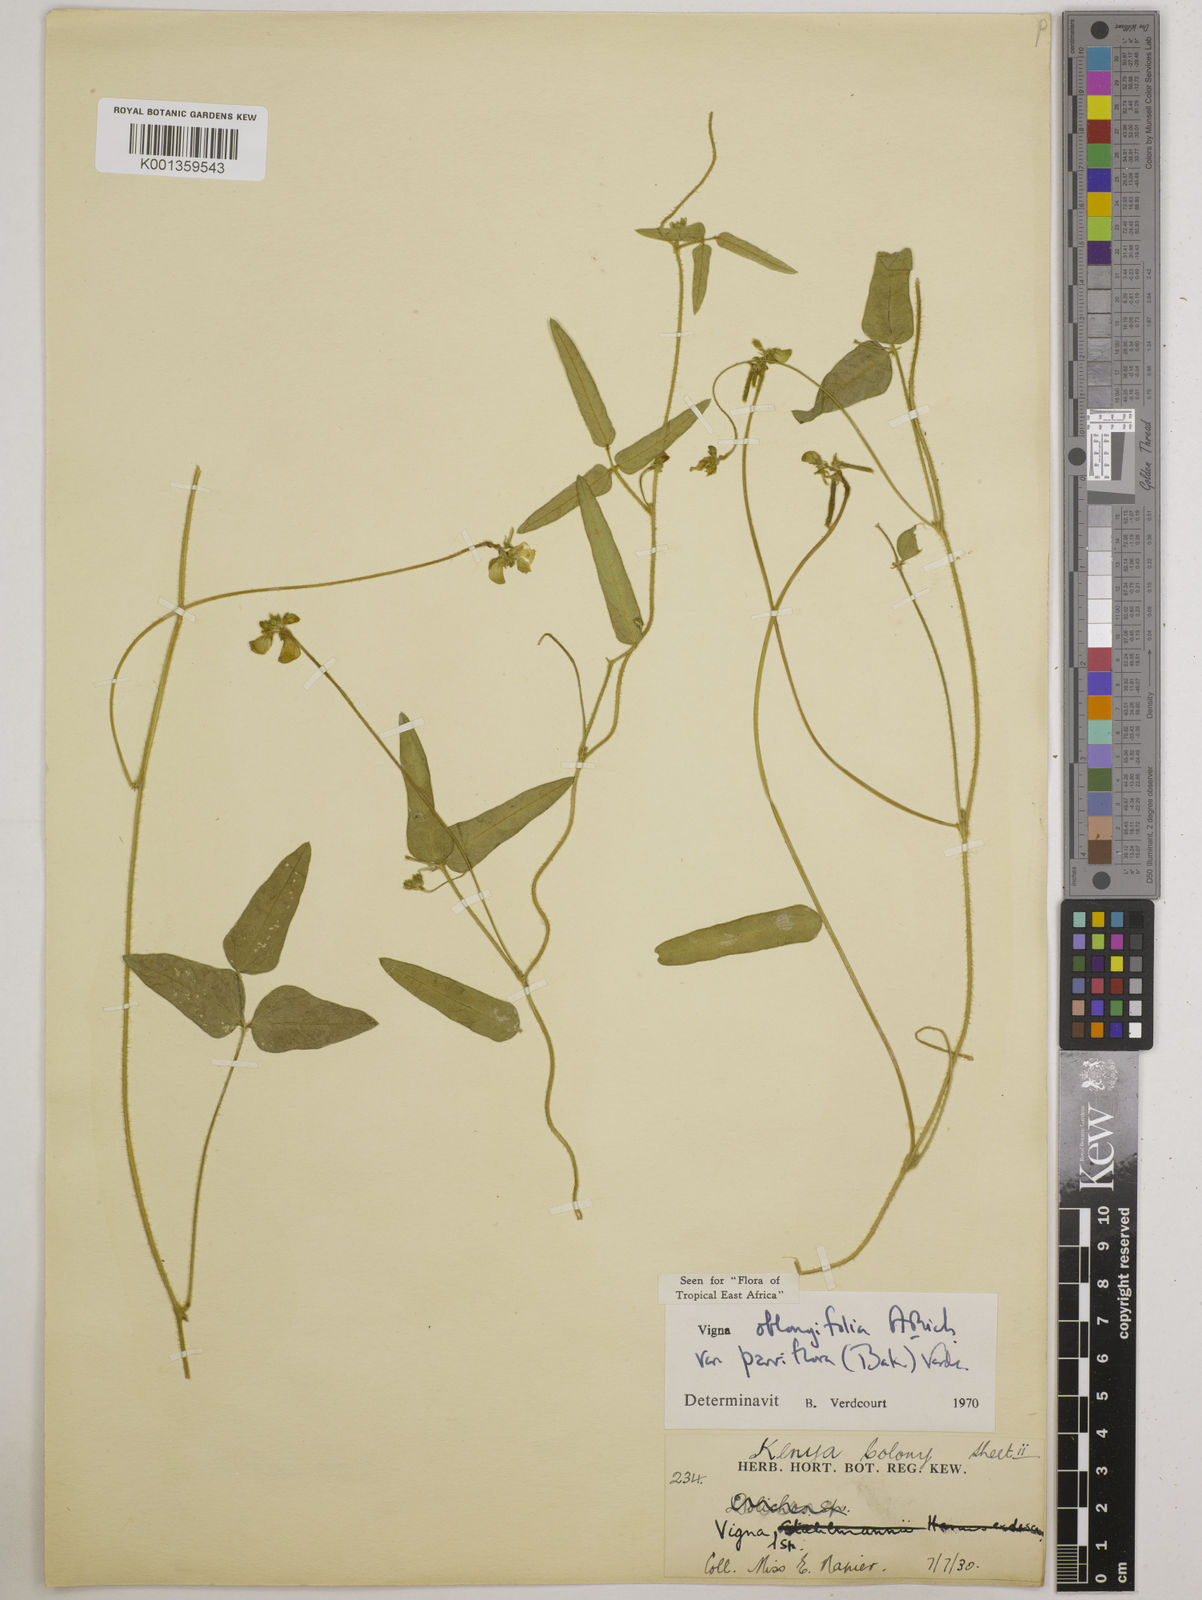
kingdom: Plantae
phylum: Tracheophyta
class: Magnoliopsida
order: Fabales
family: Fabaceae
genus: Vigna
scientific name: Vigna
